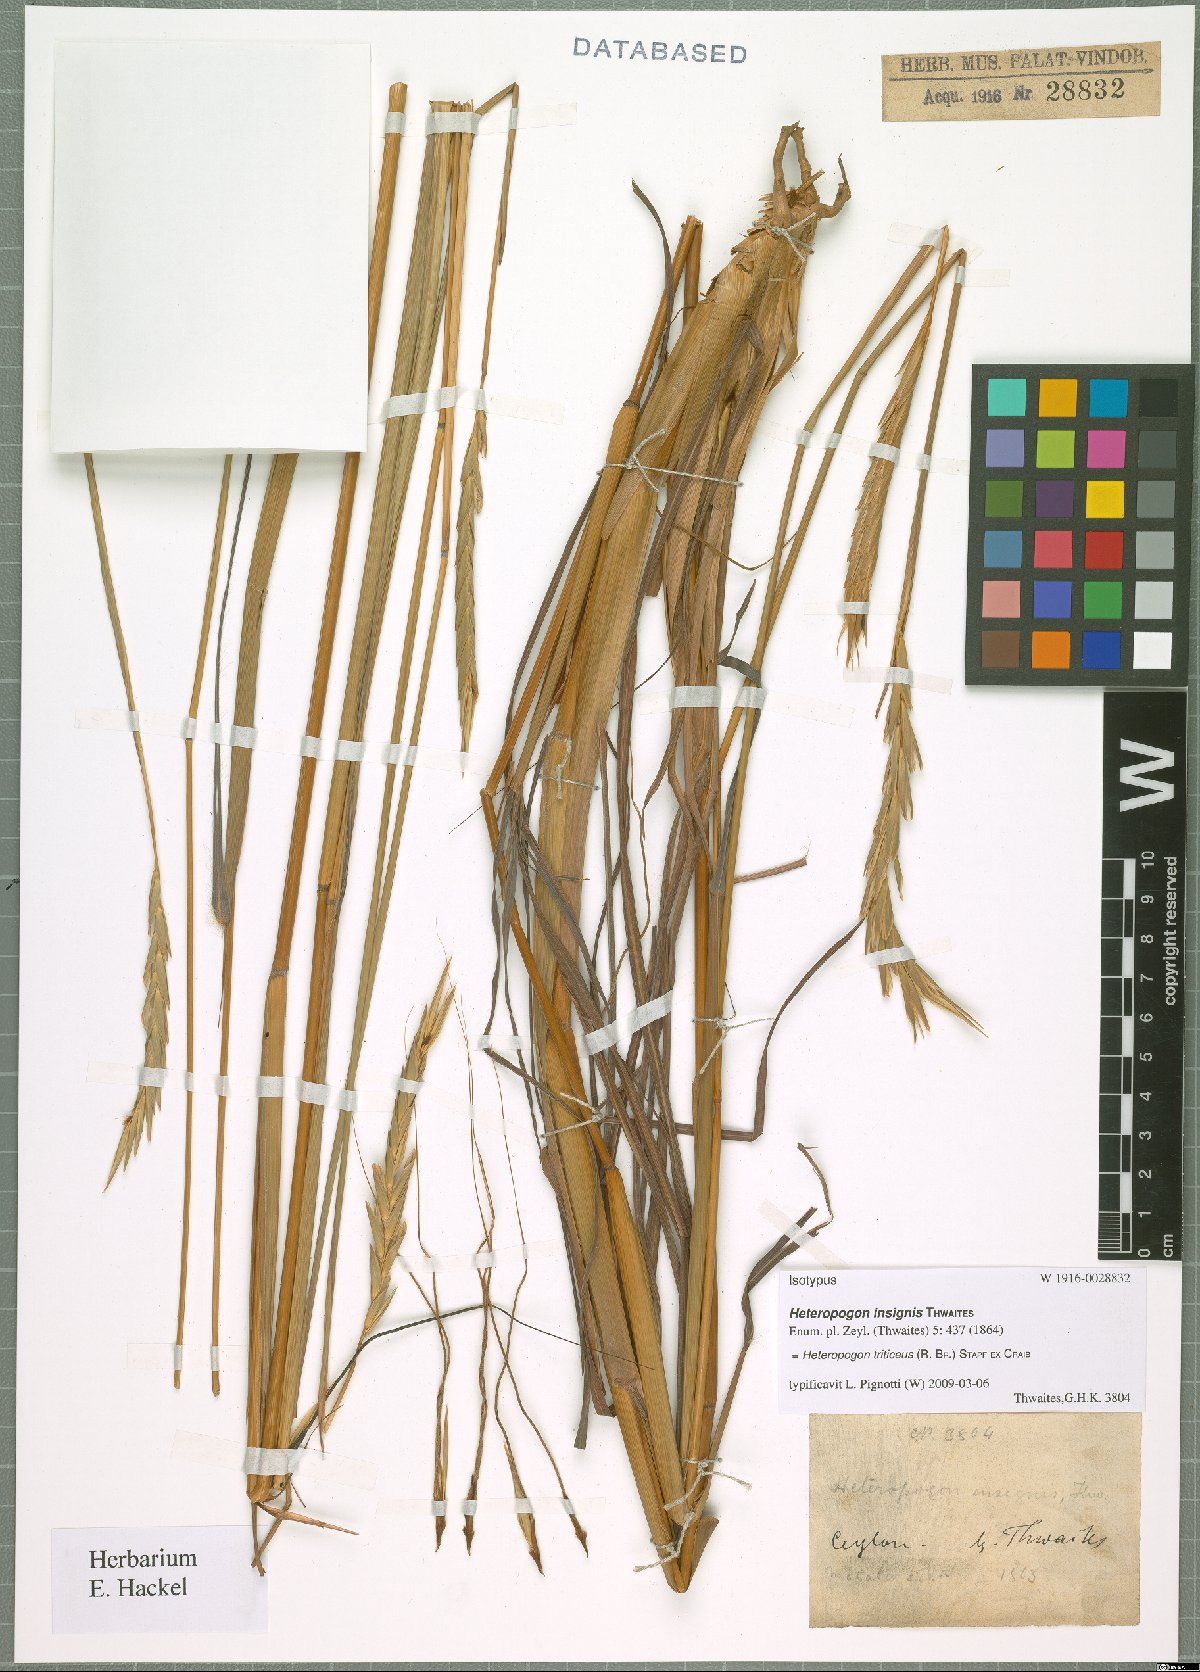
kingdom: Plantae
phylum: Tracheophyta
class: Liliopsida
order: Poales
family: Poaceae
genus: Heteropogon
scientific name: Heteropogon triticeus
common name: Sugar grass
